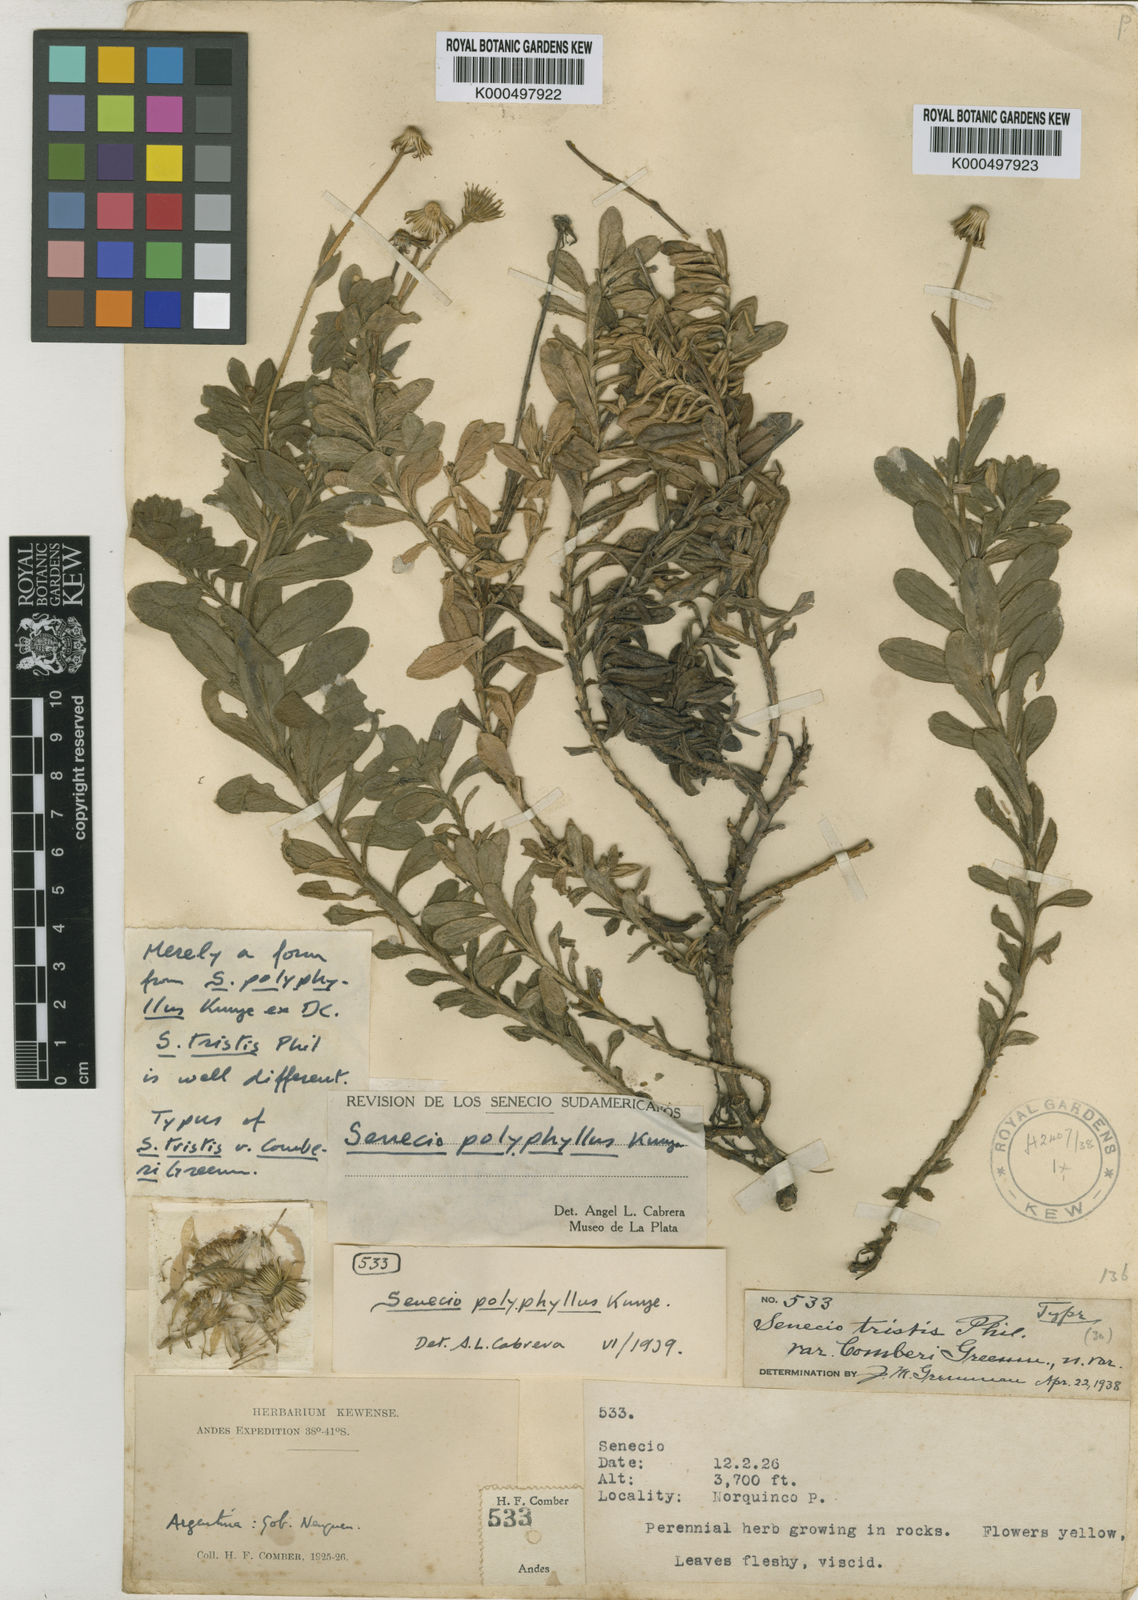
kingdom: Plantae
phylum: Tracheophyta
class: Magnoliopsida
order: Asterales
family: Asteraceae
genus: Senecio
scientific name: Senecio polyphyllus
